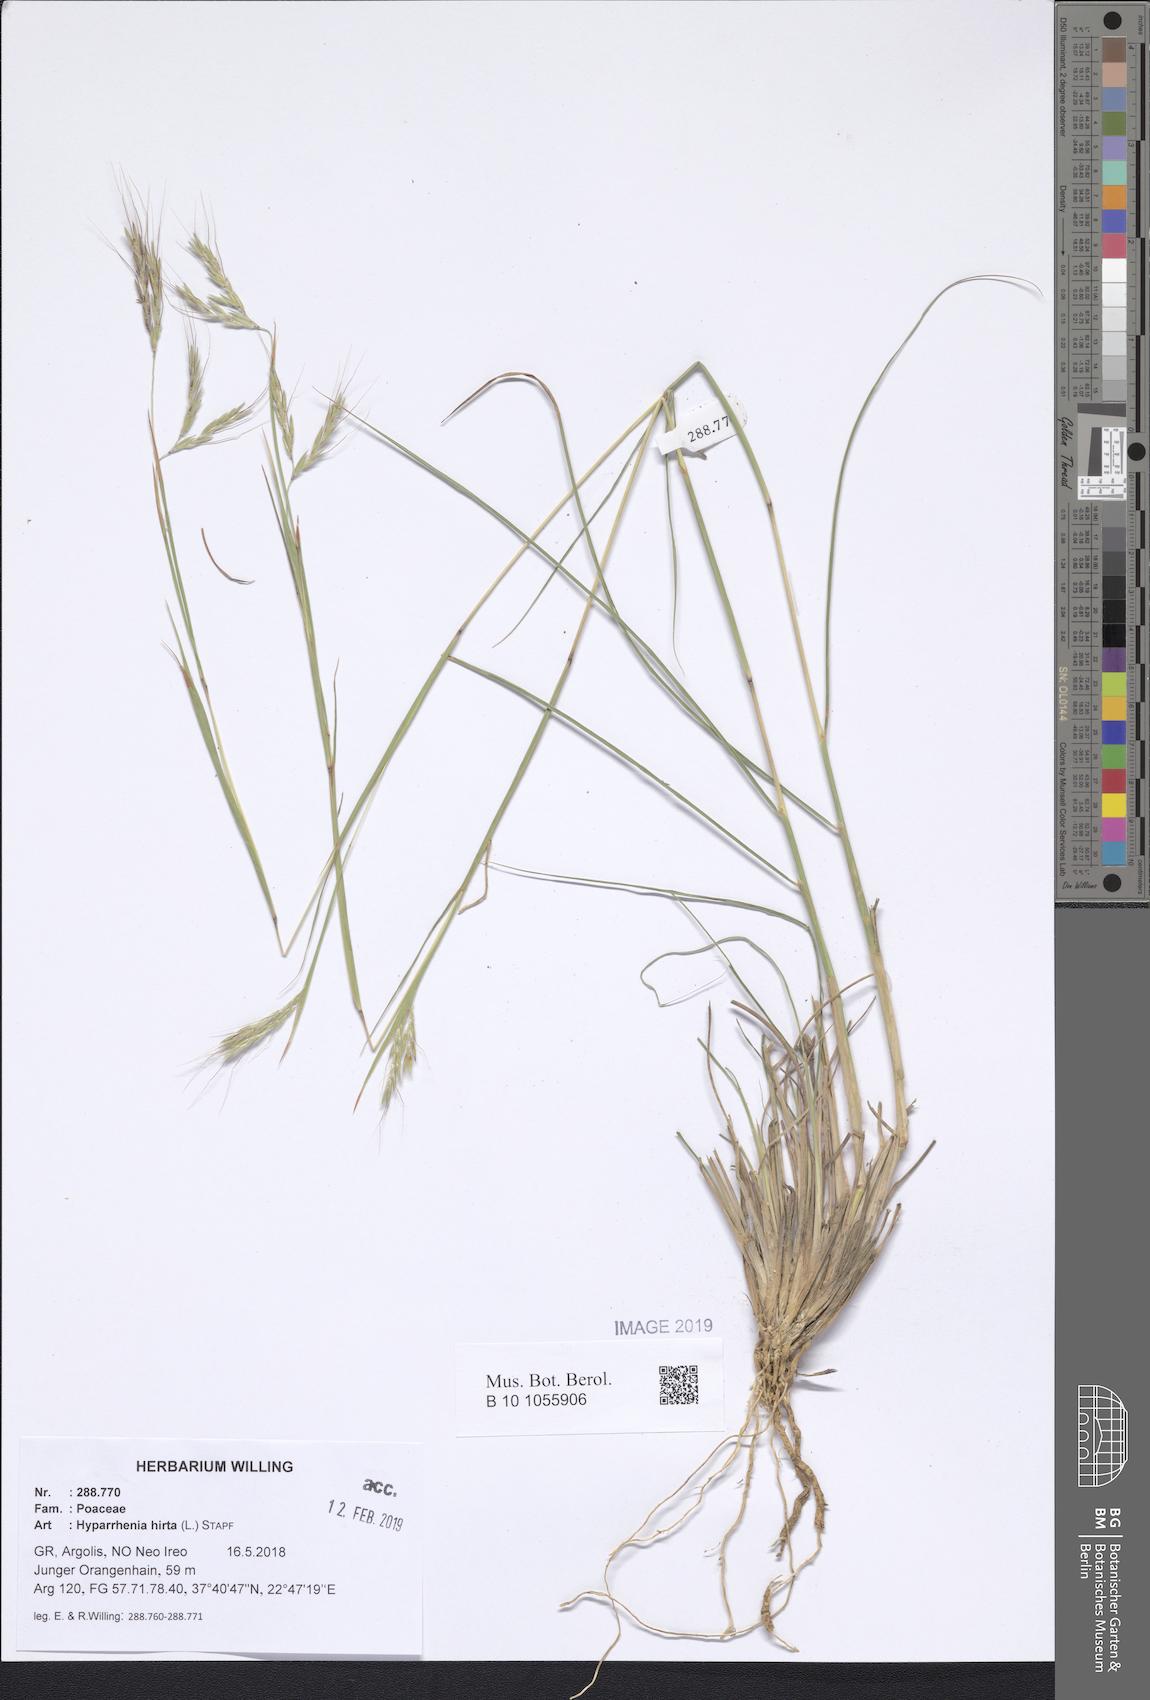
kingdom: Plantae
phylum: Tracheophyta
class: Liliopsida
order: Poales
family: Poaceae
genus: Hyparrhenia
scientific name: Hyparrhenia hirta
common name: Thatching grass
